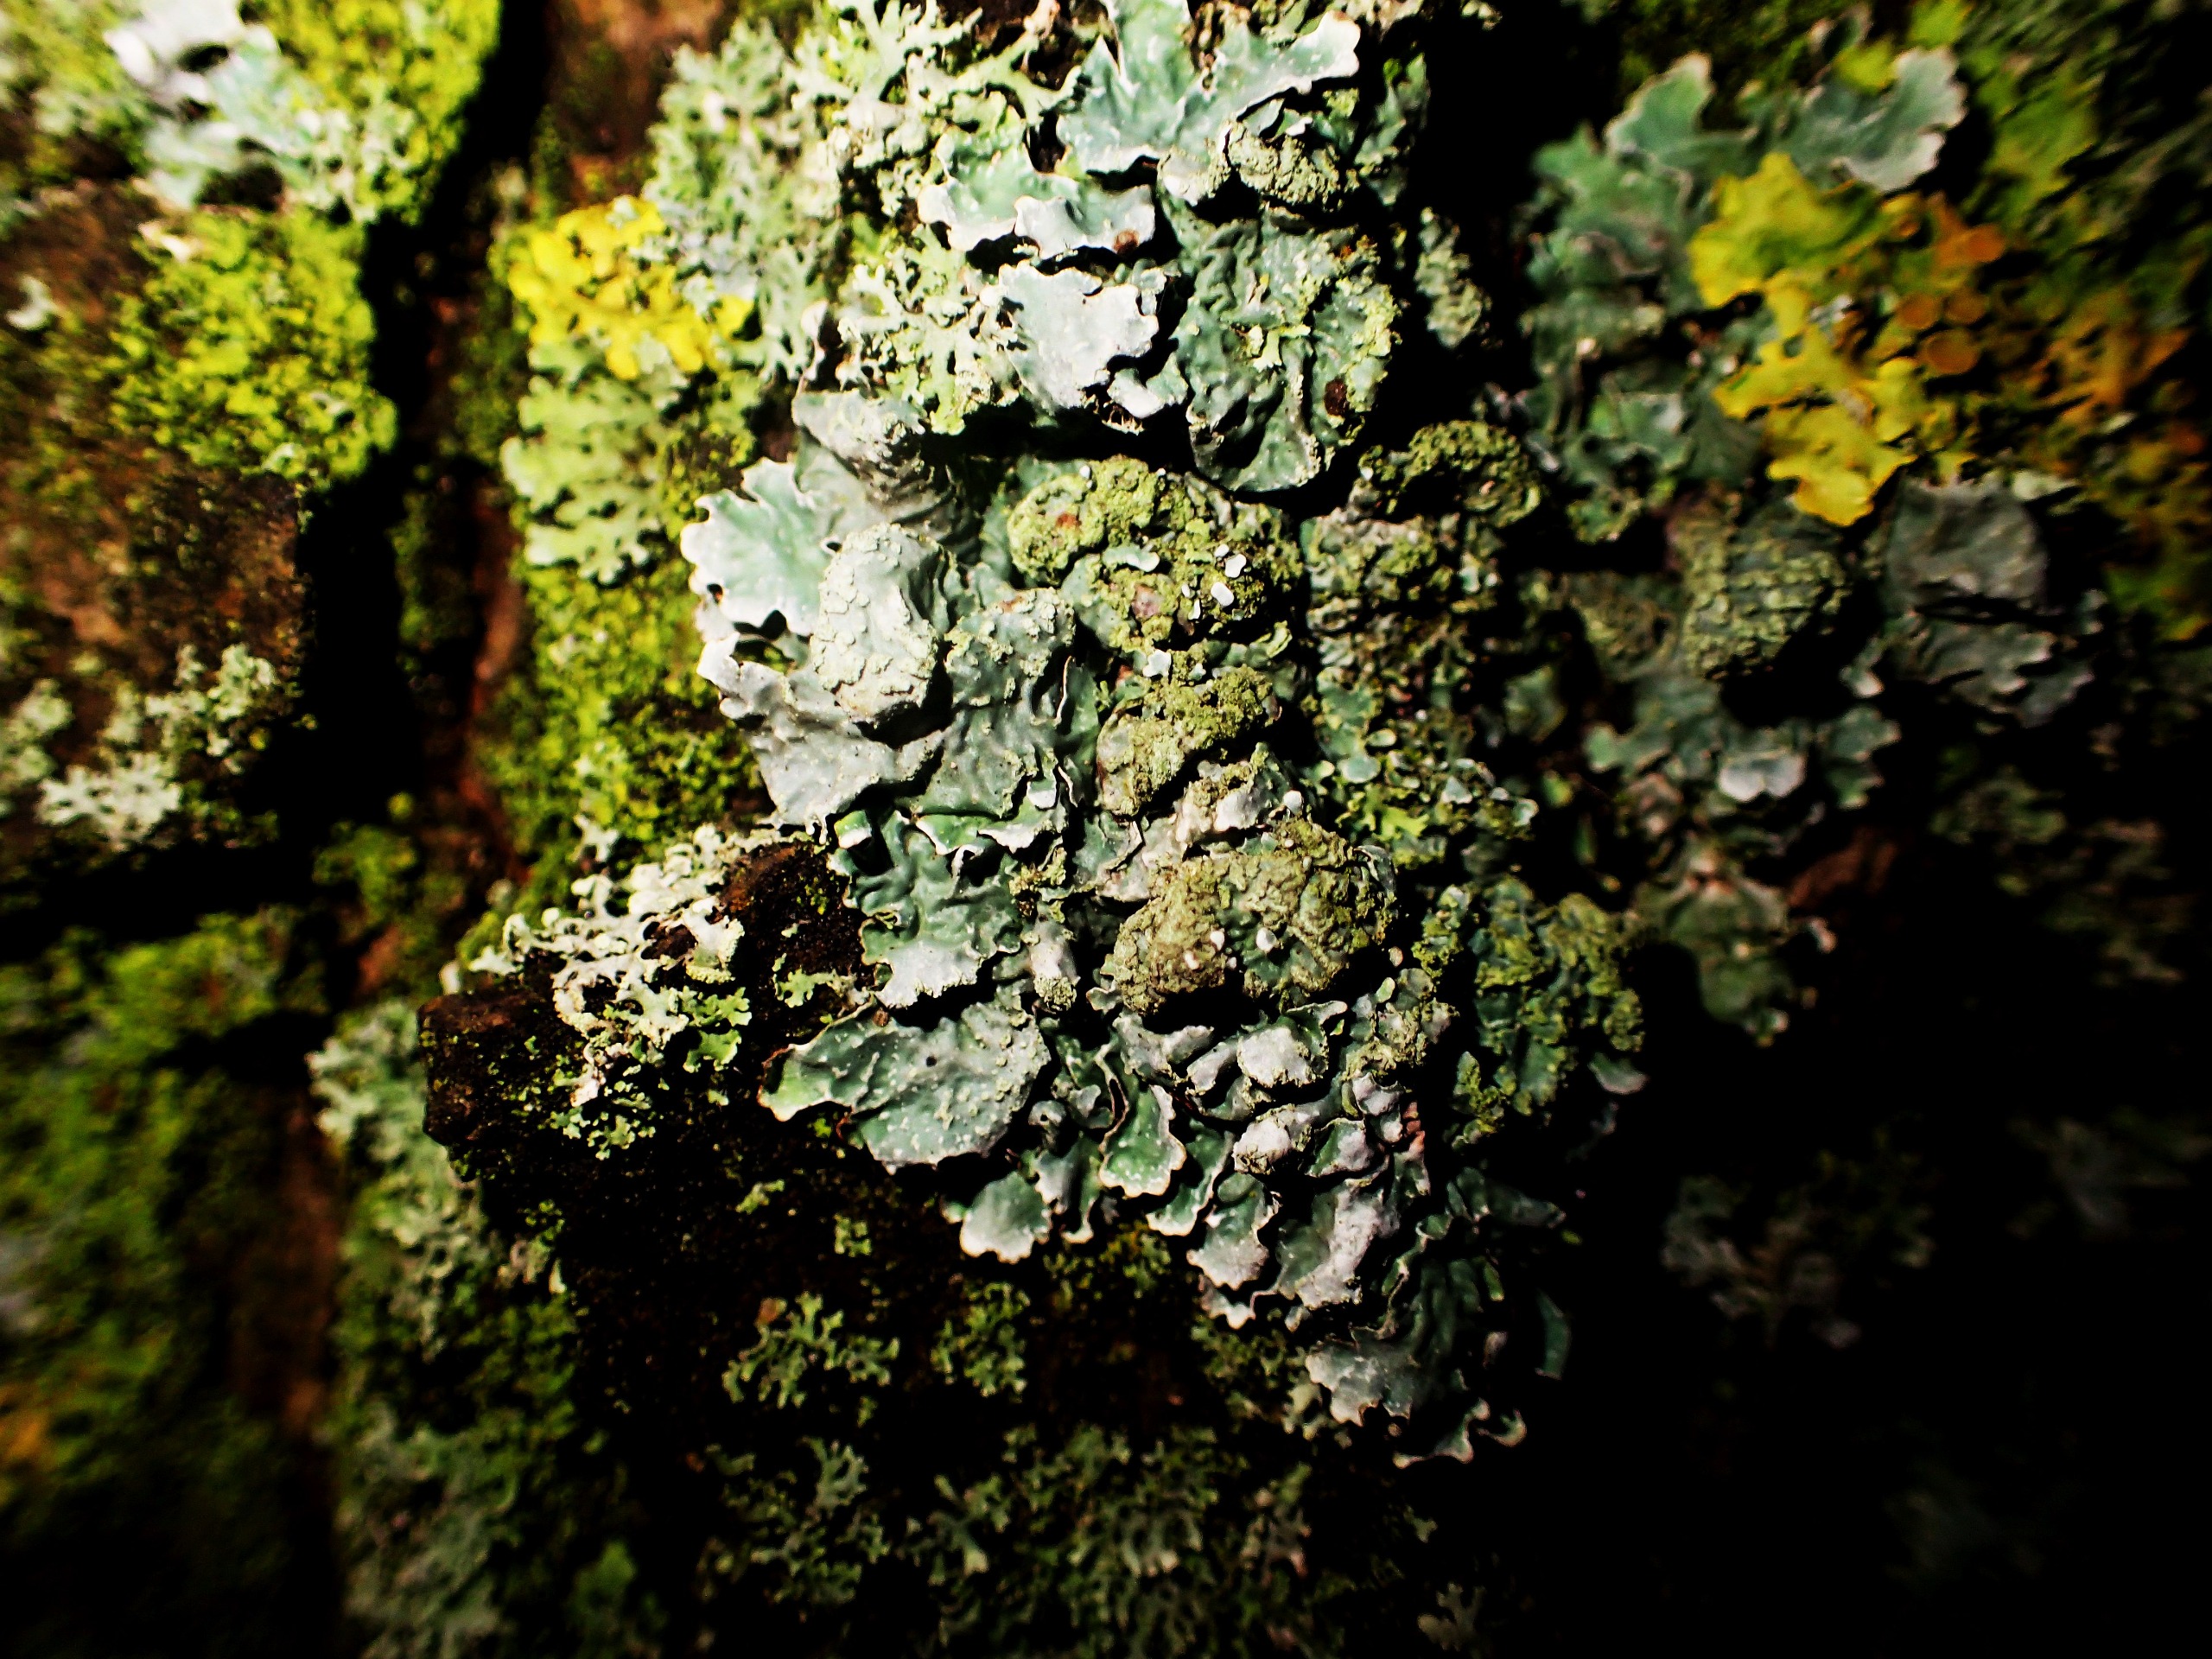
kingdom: Fungi
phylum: Ascomycota
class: Lecanoromycetes
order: Lecanorales
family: Parmeliaceae
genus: Parmelia
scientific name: Parmelia sulcata
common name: Rynket skållav
